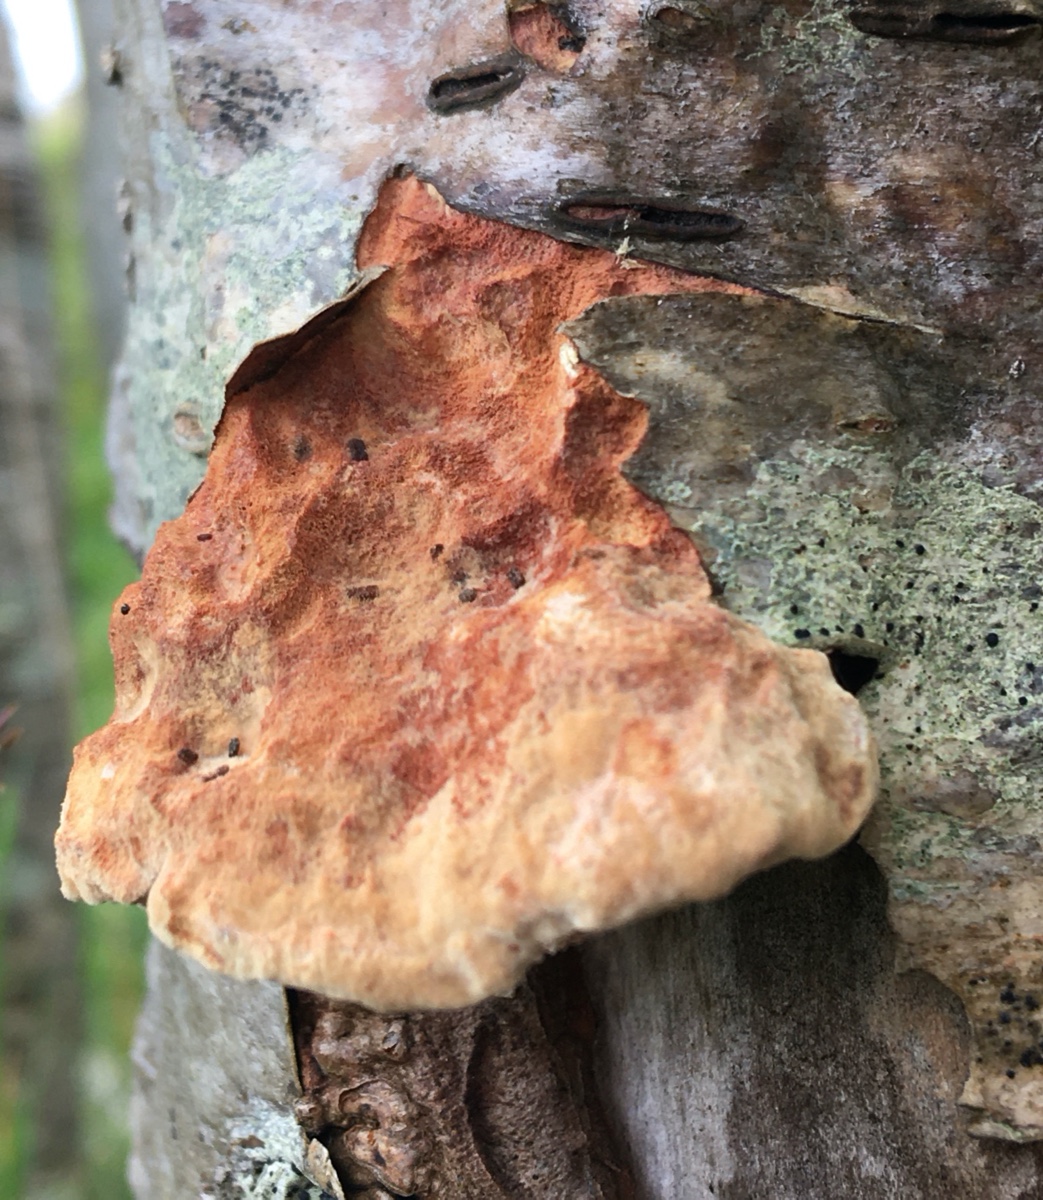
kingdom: Fungi
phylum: Basidiomycota
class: Agaricomycetes
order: Polyporales
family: Phanerochaetaceae
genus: Hapalopilus
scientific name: Hapalopilus rutilans
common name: rødlig okkerporesvamp
